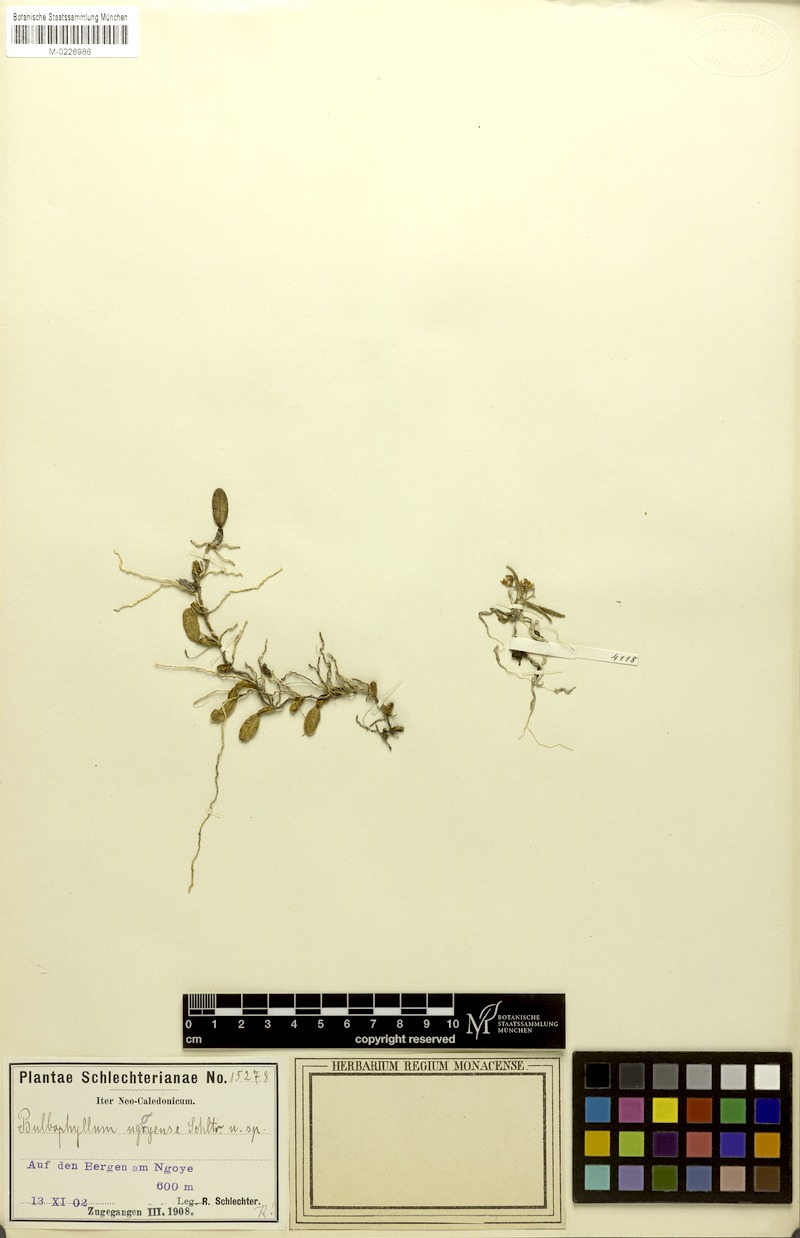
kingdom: Plantae
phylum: Tracheophyta
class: Liliopsida
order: Asparagales
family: Orchidaceae
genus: Bulbophyllum
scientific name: Bulbophyllum ngoyense
